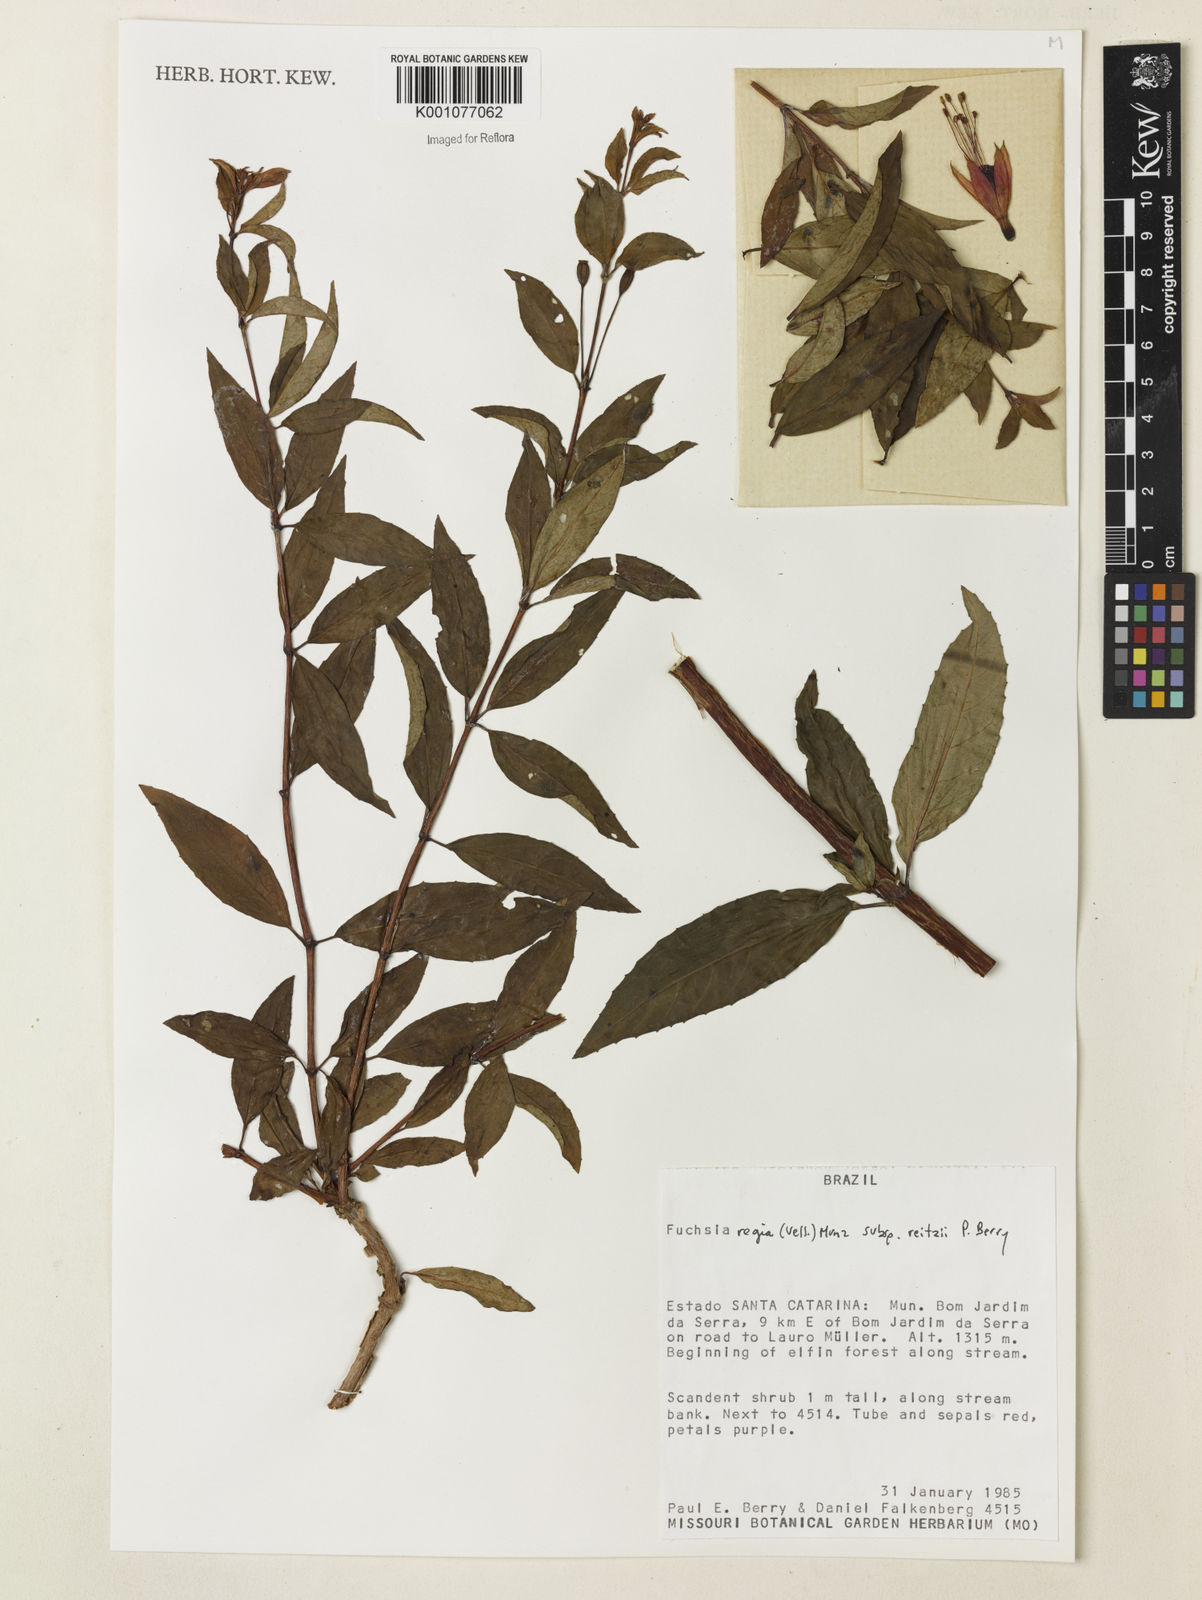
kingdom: Plantae
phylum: Tracheophyta
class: Magnoliopsida
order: Myrtales
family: Onagraceae
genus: Fuchsia
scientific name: Fuchsia regia
